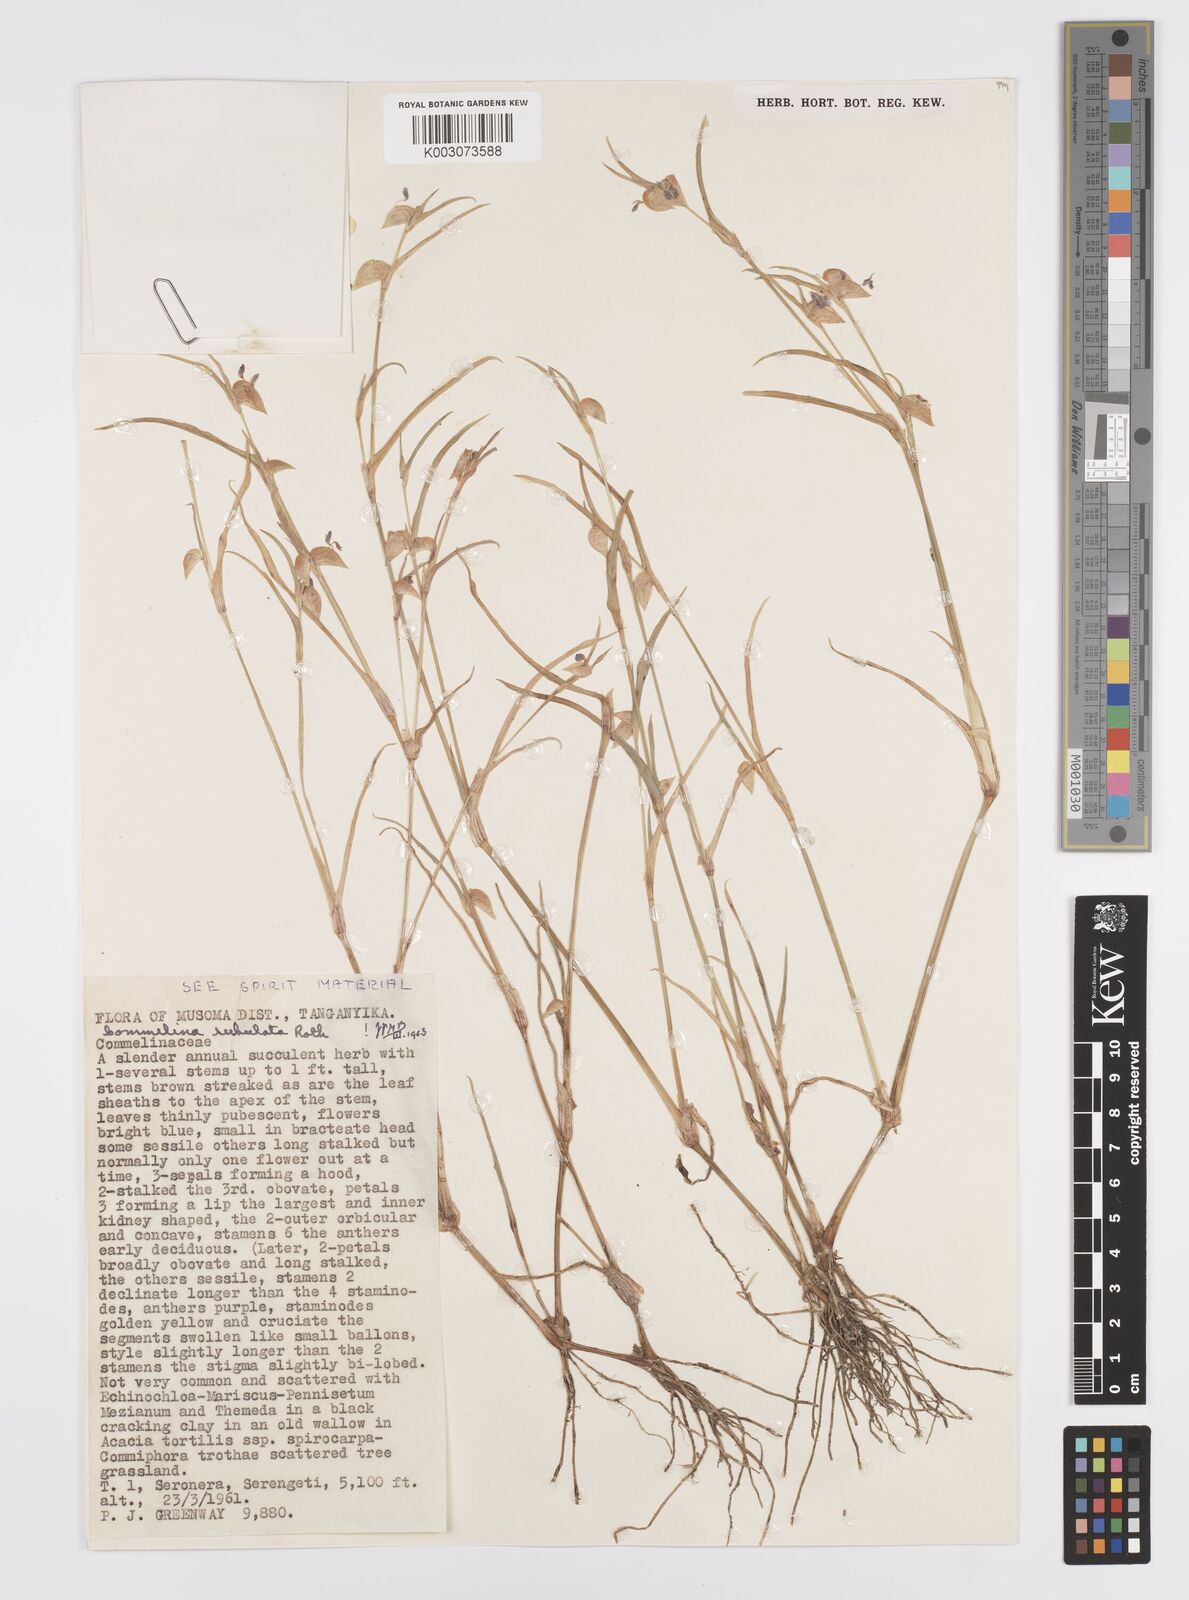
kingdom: Plantae
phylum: Tracheophyta
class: Liliopsida
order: Commelinales
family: Commelinaceae
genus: Commelina
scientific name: Commelina subulata
